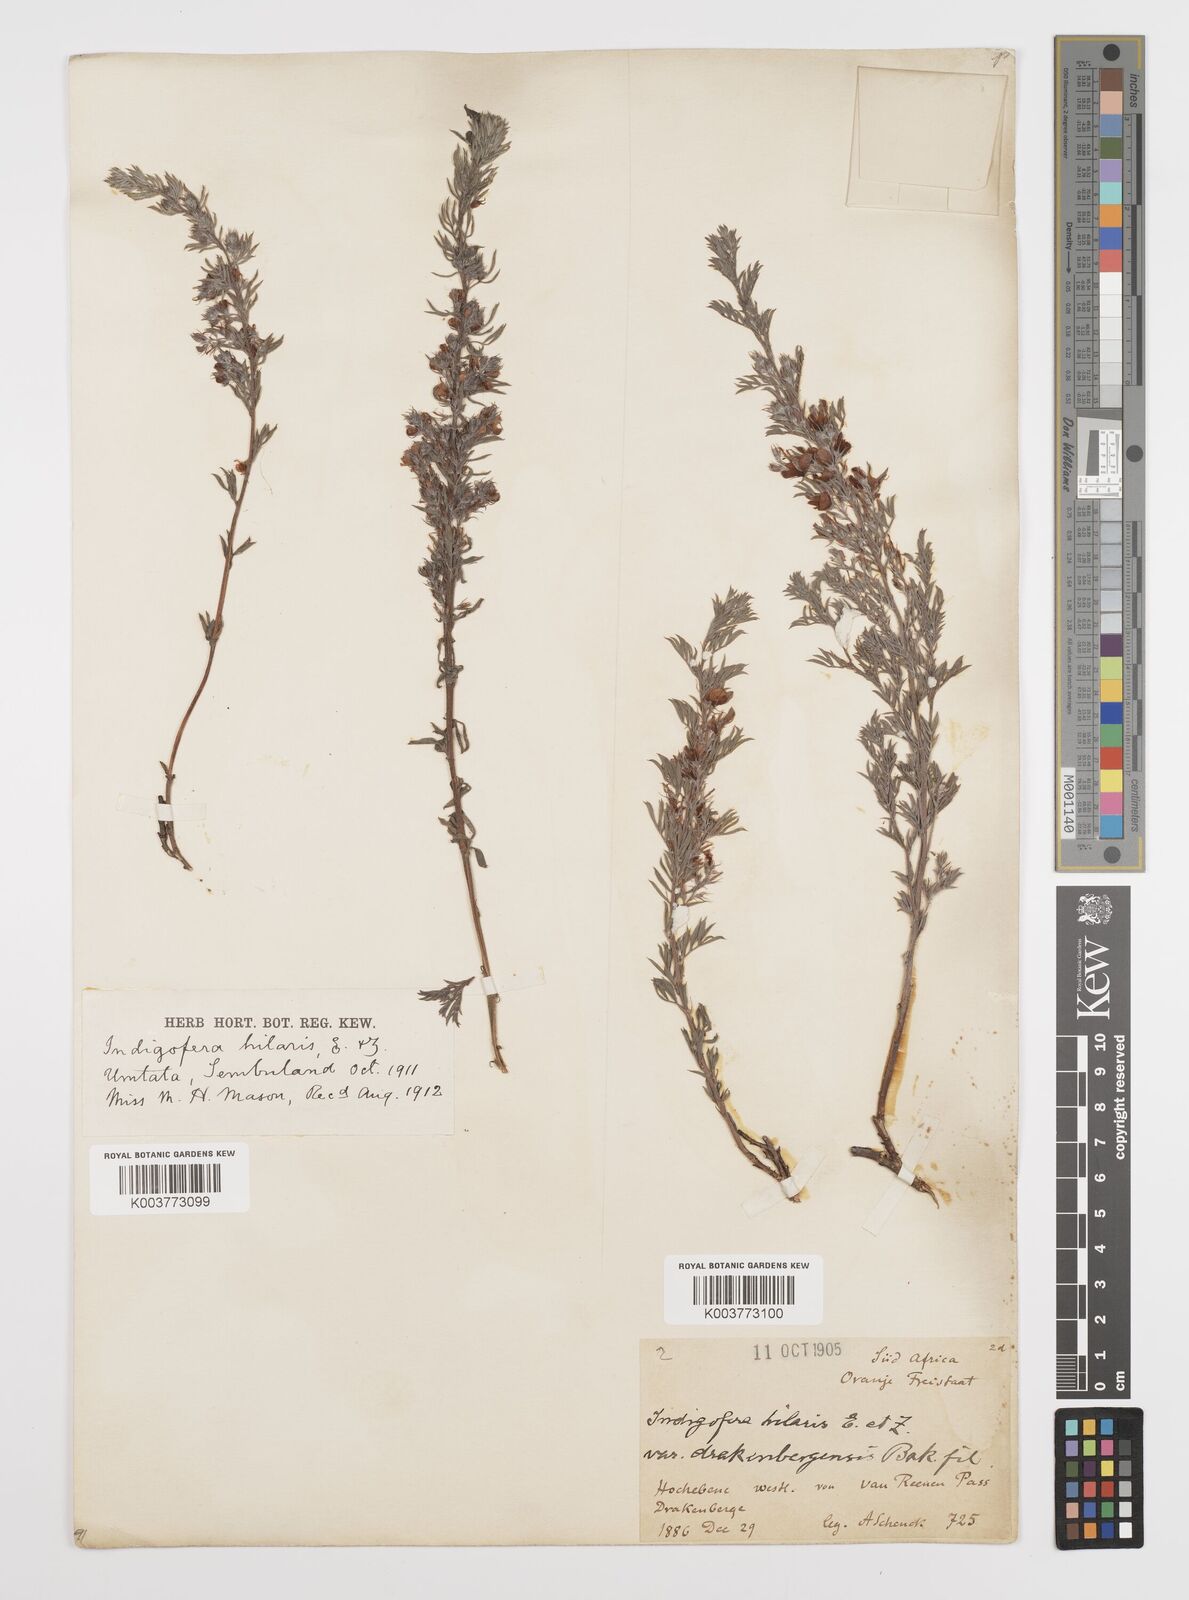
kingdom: Plantae
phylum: Tracheophyta
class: Magnoliopsida
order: Fabales
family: Fabaceae
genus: Indigofera
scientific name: Indigofera
